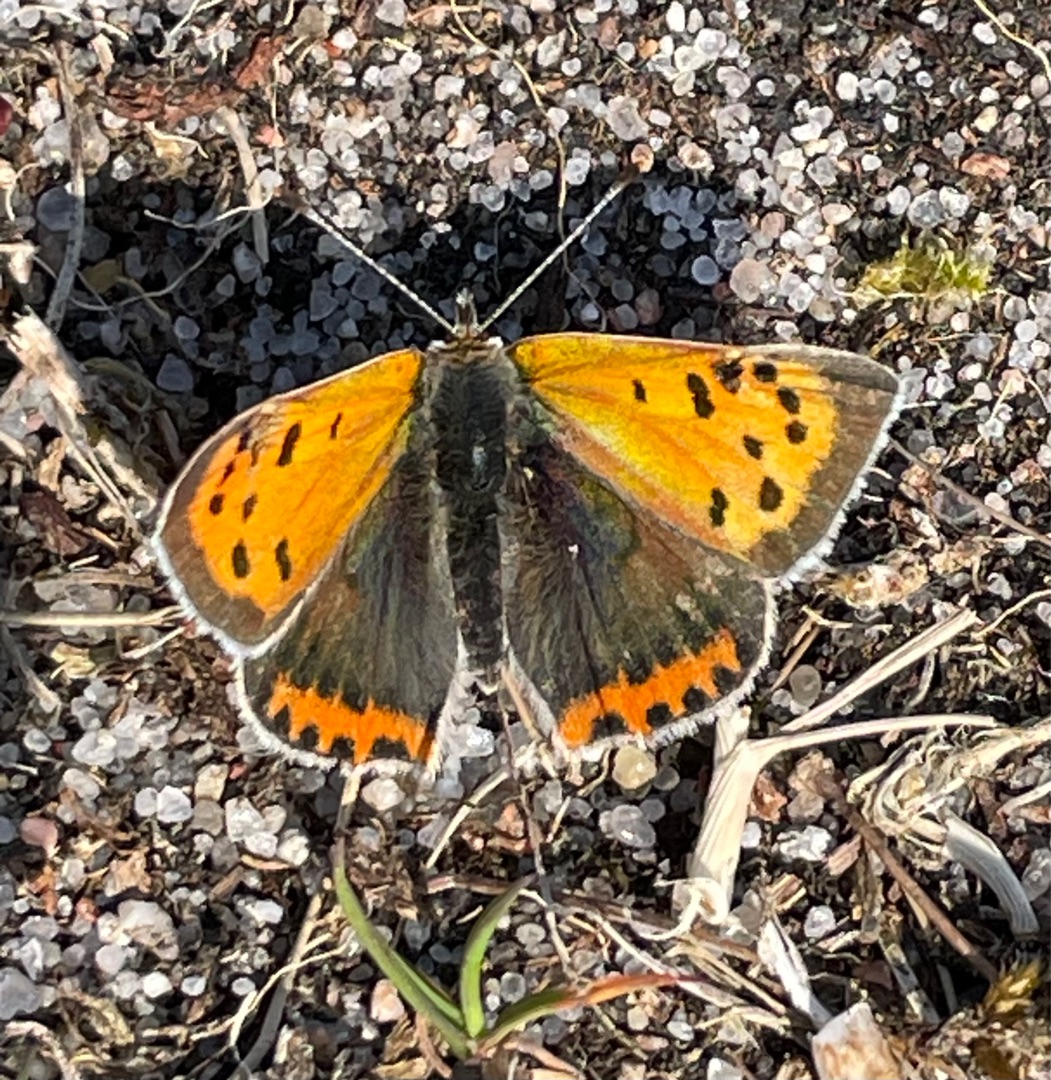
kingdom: Animalia
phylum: Arthropoda
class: Insecta
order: Lepidoptera
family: Lycaenidae
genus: Lycaena
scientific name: Lycaena phlaeas
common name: Lille ildfugl
